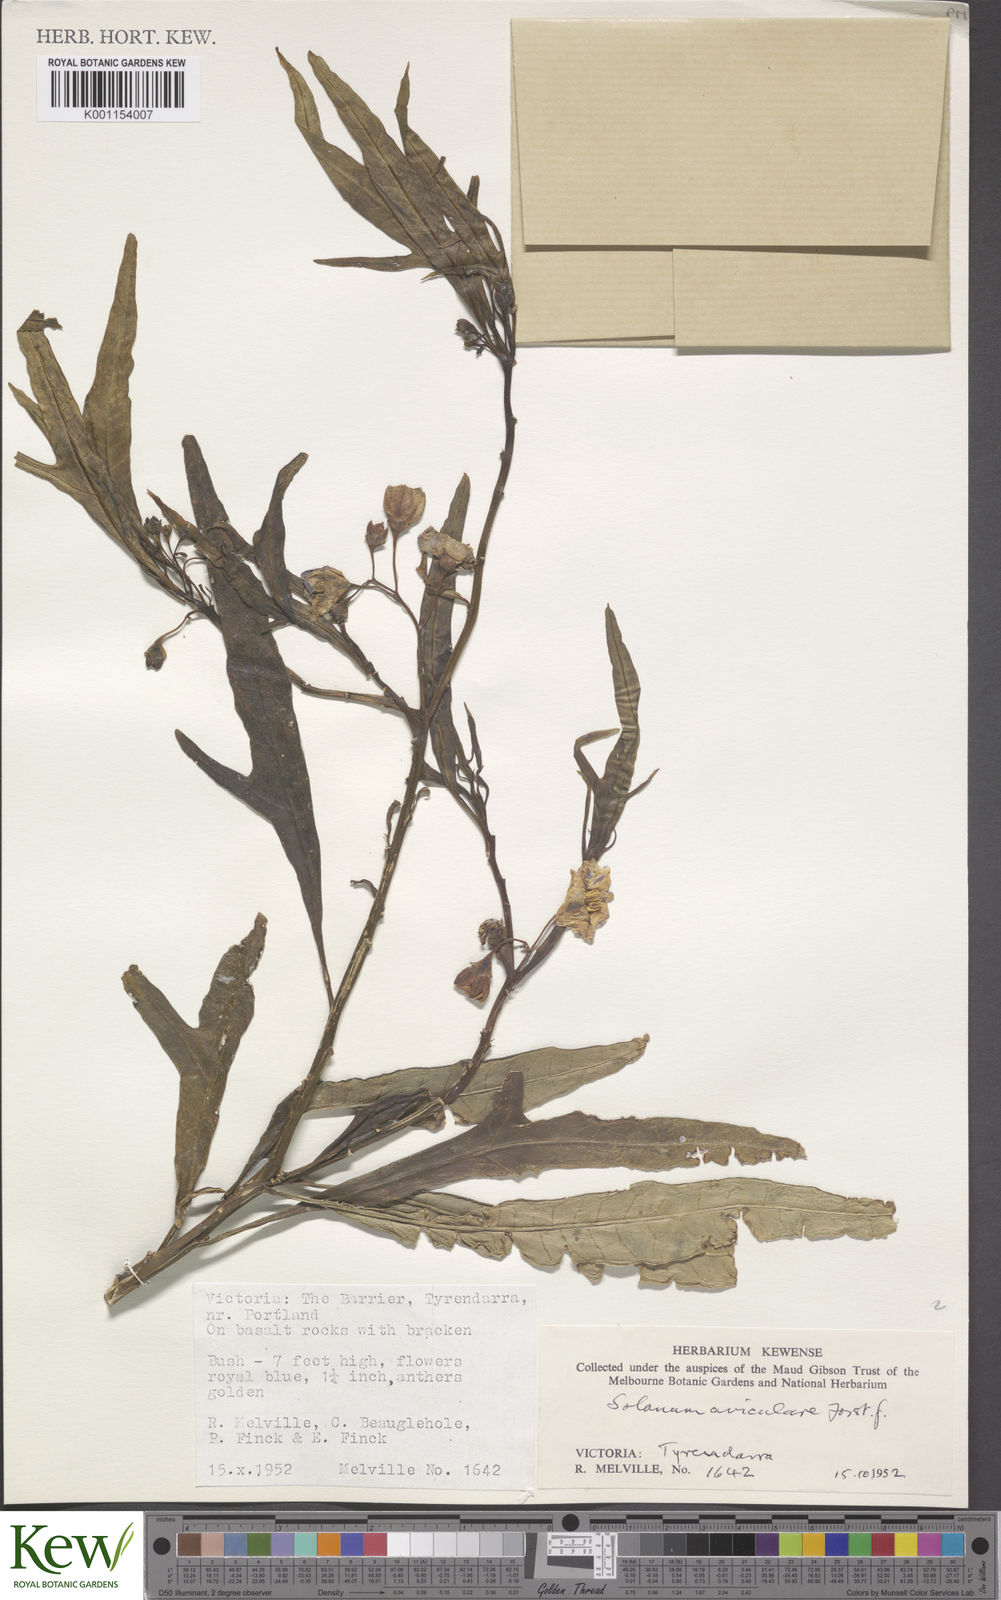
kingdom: Plantae
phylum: Tracheophyta
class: Magnoliopsida
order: Solanales
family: Solanaceae
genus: Solanum
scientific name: Solanum aviculare
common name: New zealand nightshade
